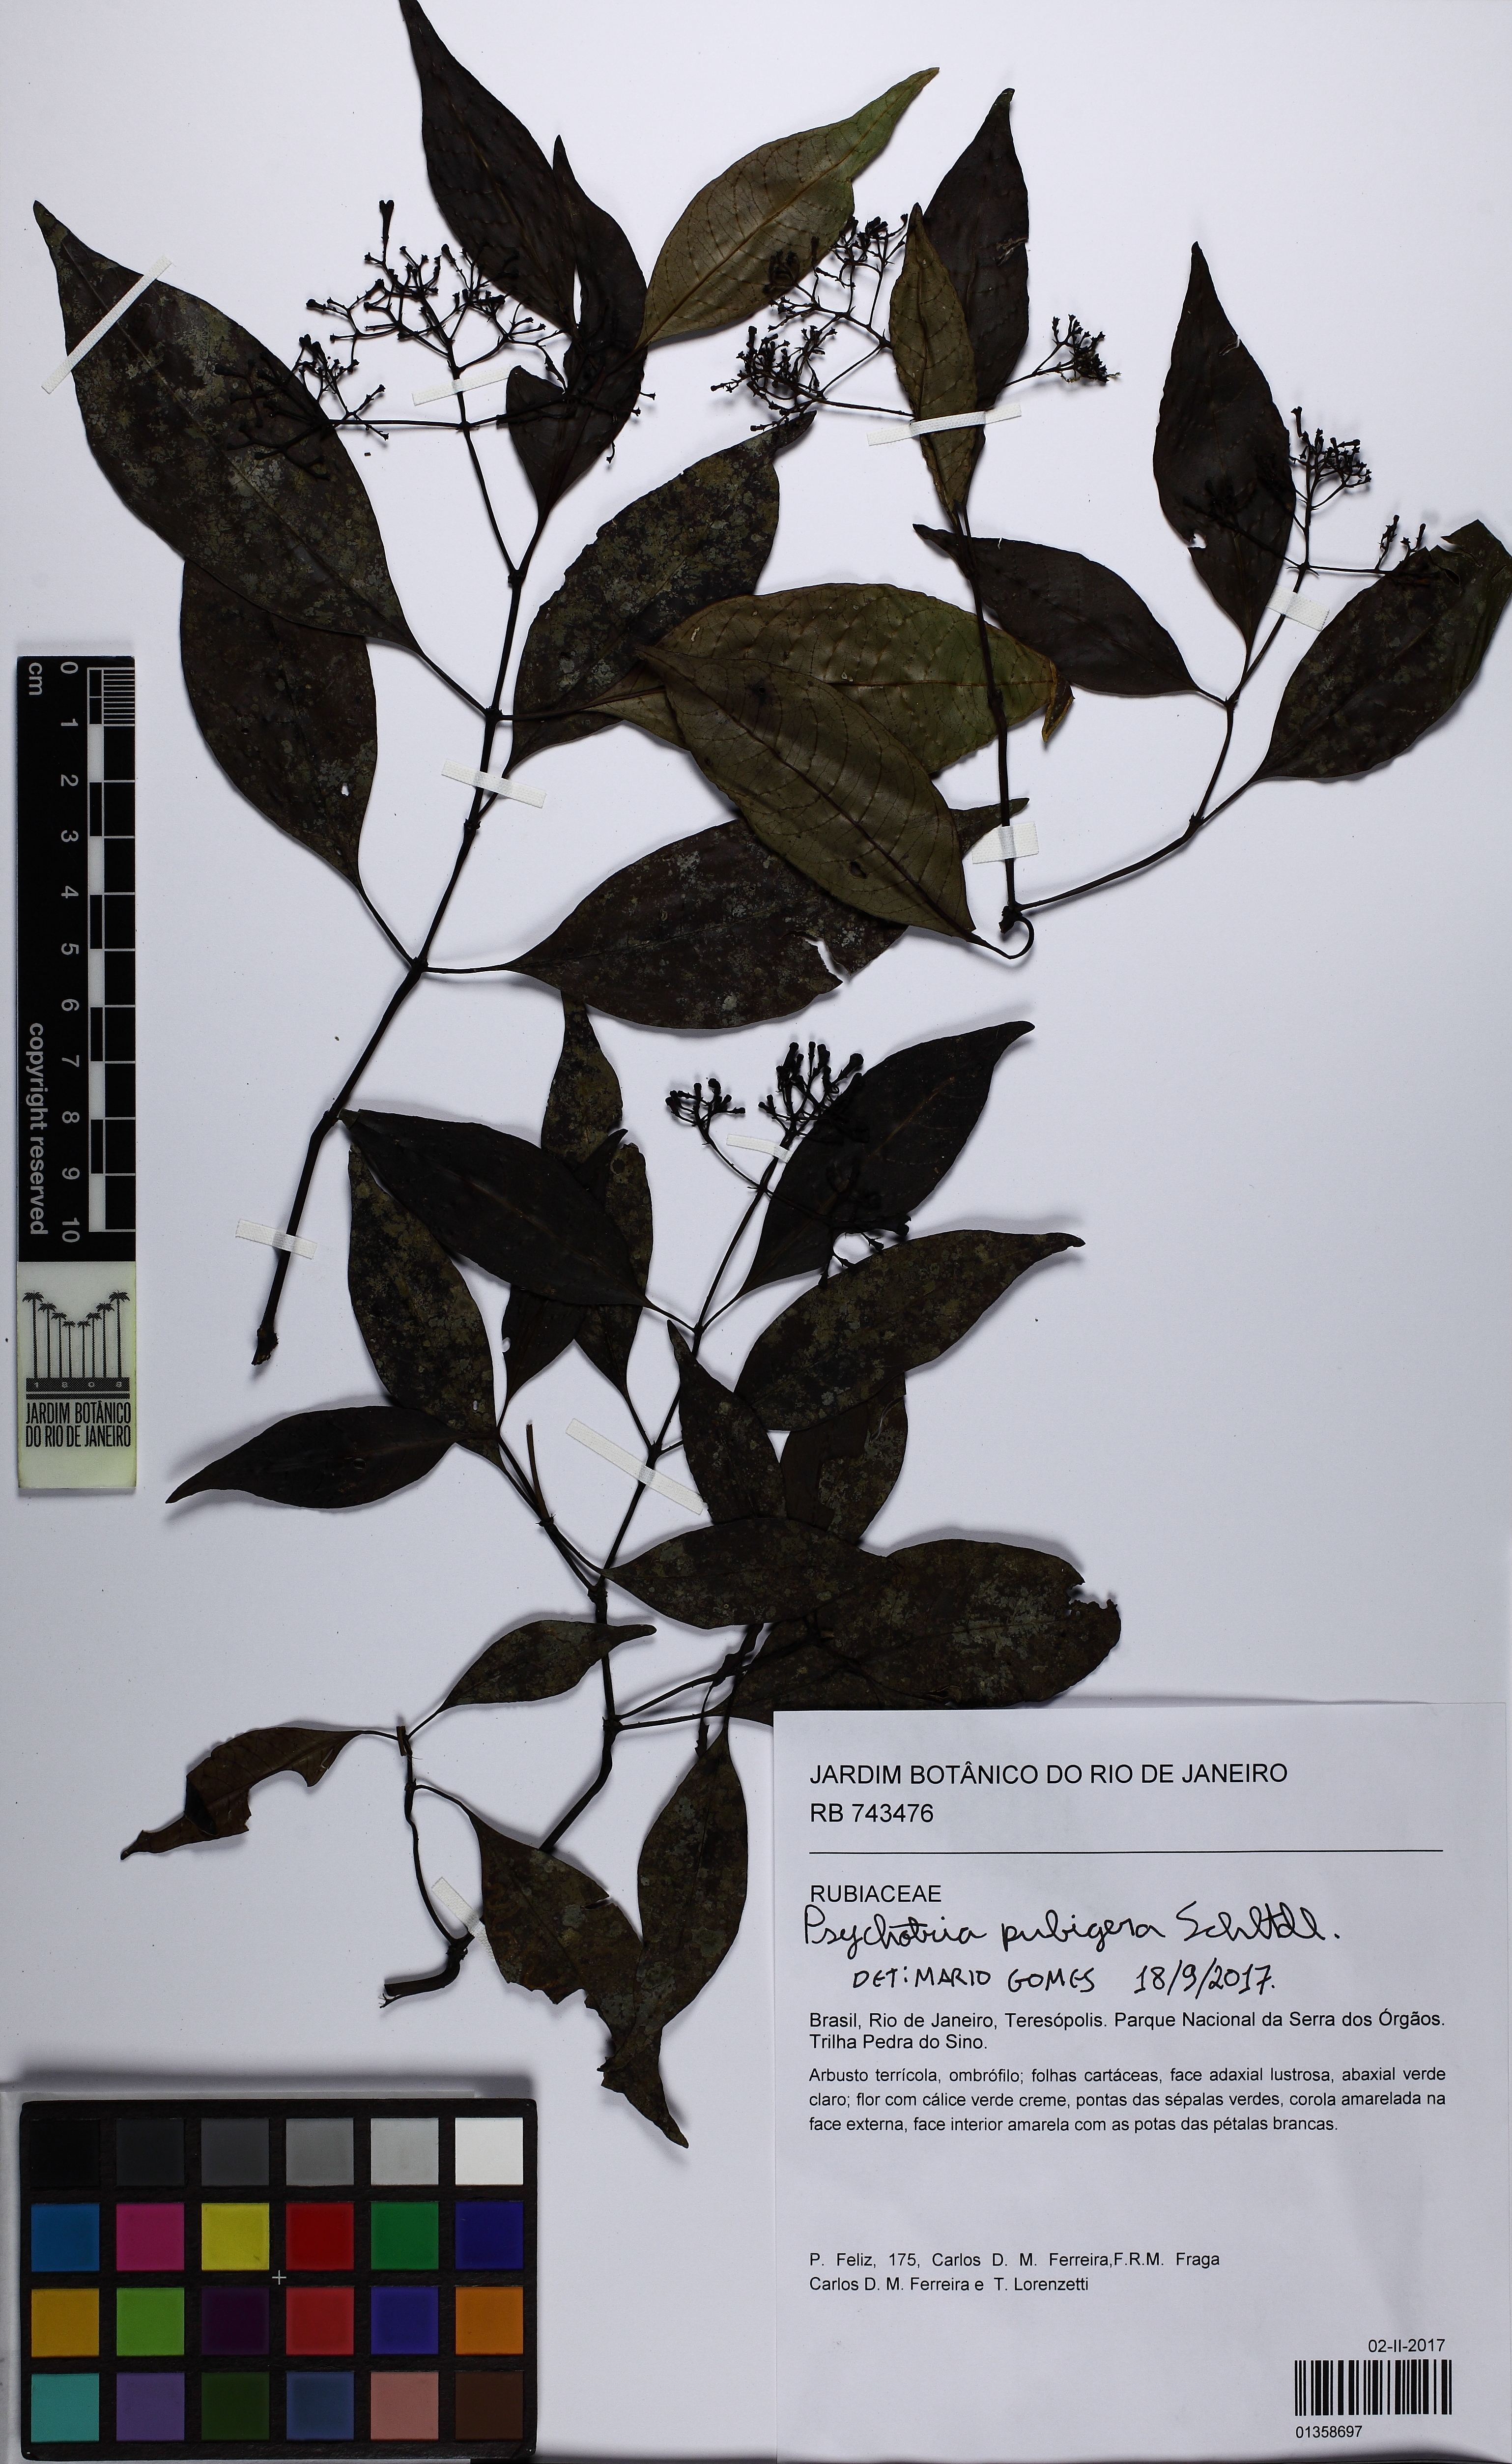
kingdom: Plantae
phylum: Tracheophyta
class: Magnoliopsida
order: Gentianales
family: Rubiaceae
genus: Psychotria
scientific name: Psychotria nemorosa
